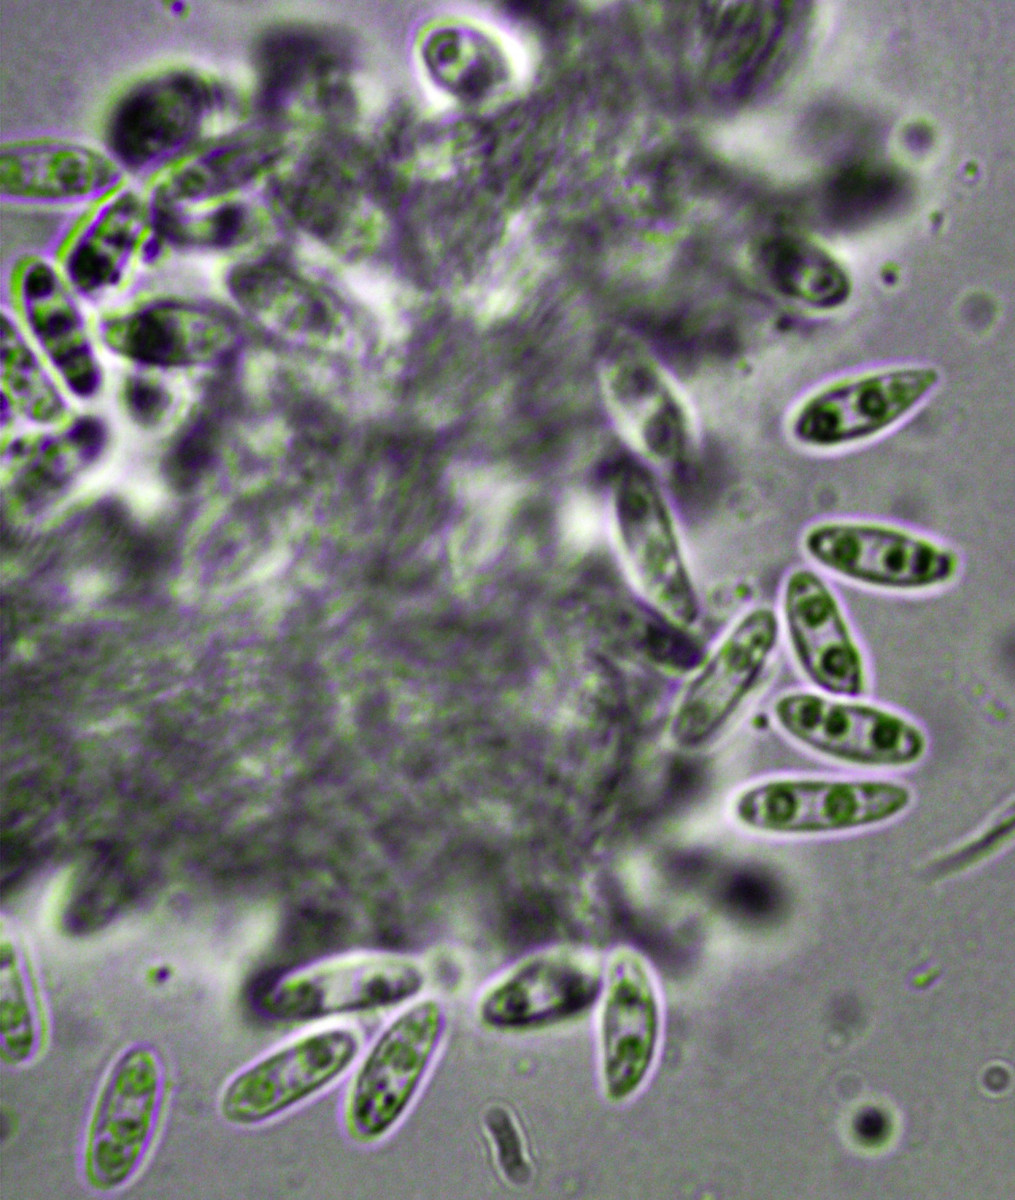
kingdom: Fungi
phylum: Ascomycota
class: Sordariomycetes
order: Diaporthales
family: Diaporthaceae
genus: Phomopsis
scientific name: Phomopsis ramealis
